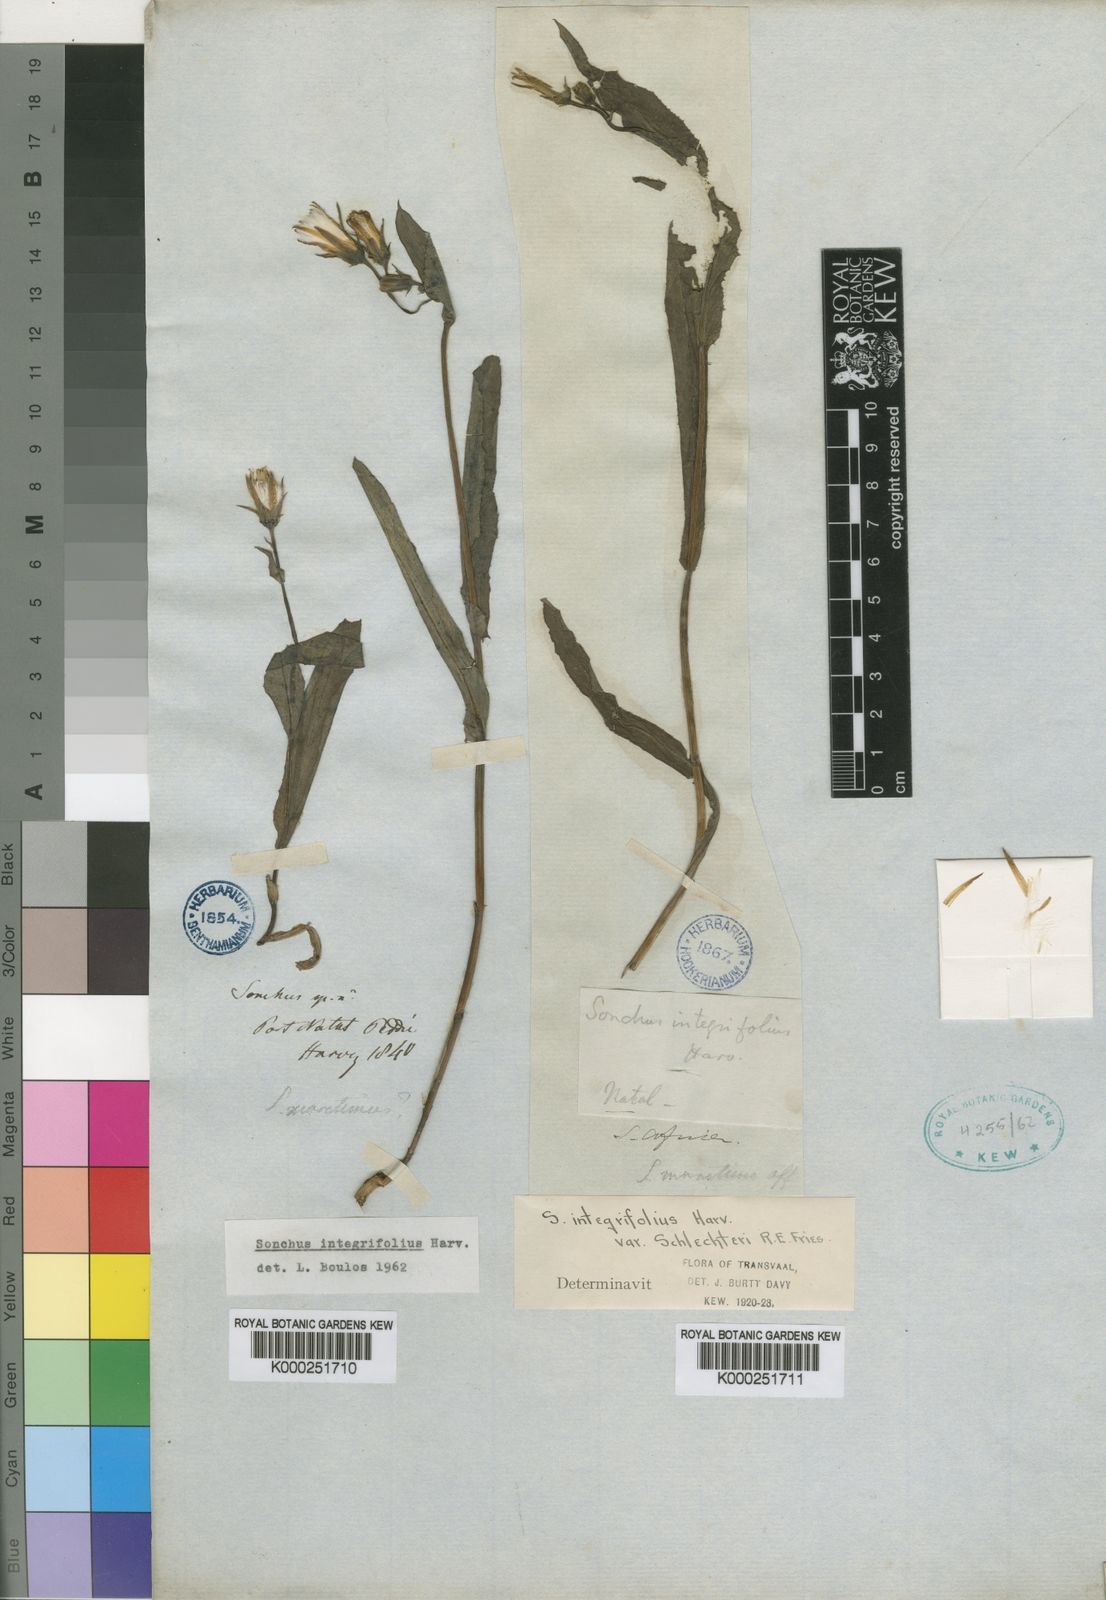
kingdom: Plantae
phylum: Tracheophyta
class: Magnoliopsida
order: Asterales
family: Asteraceae
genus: Sonchus
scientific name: Sonchus integrifolius
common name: Thistle
